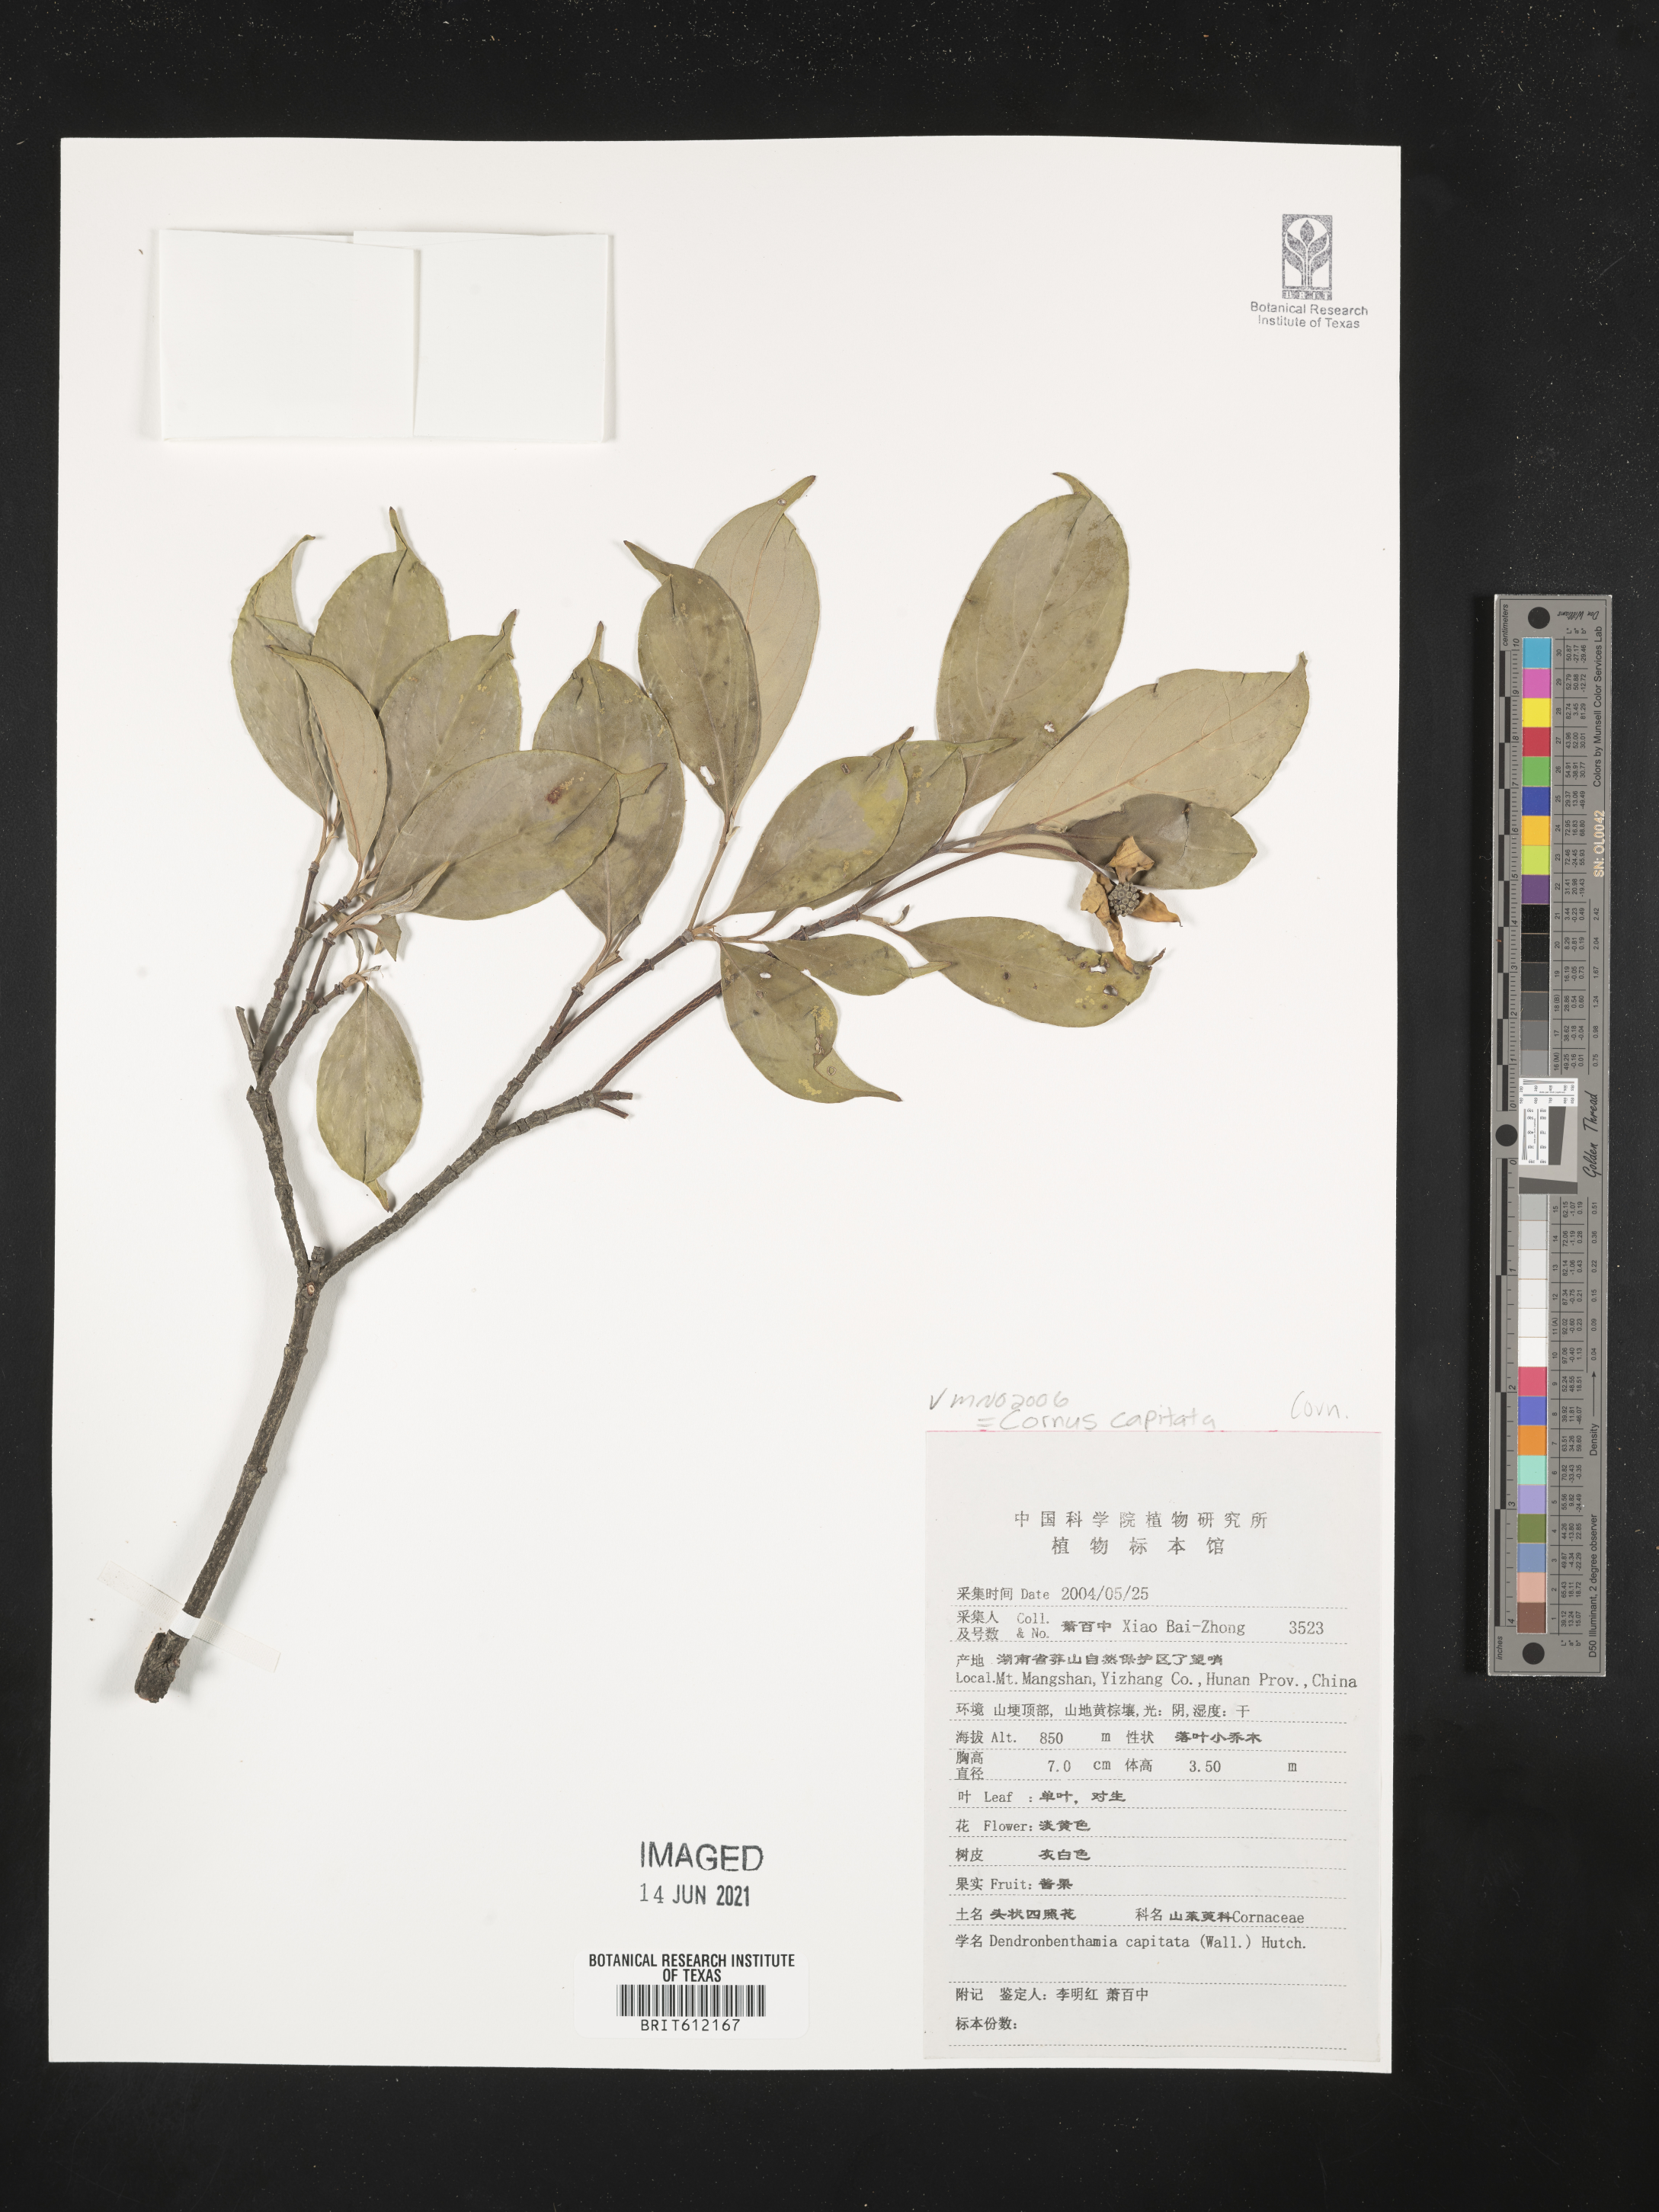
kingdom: Plantae
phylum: Tracheophyta
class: Magnoliopsida
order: Cornales
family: Cornaceae
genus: Cornus
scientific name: Cornus capitata
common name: Bentham's cornel
